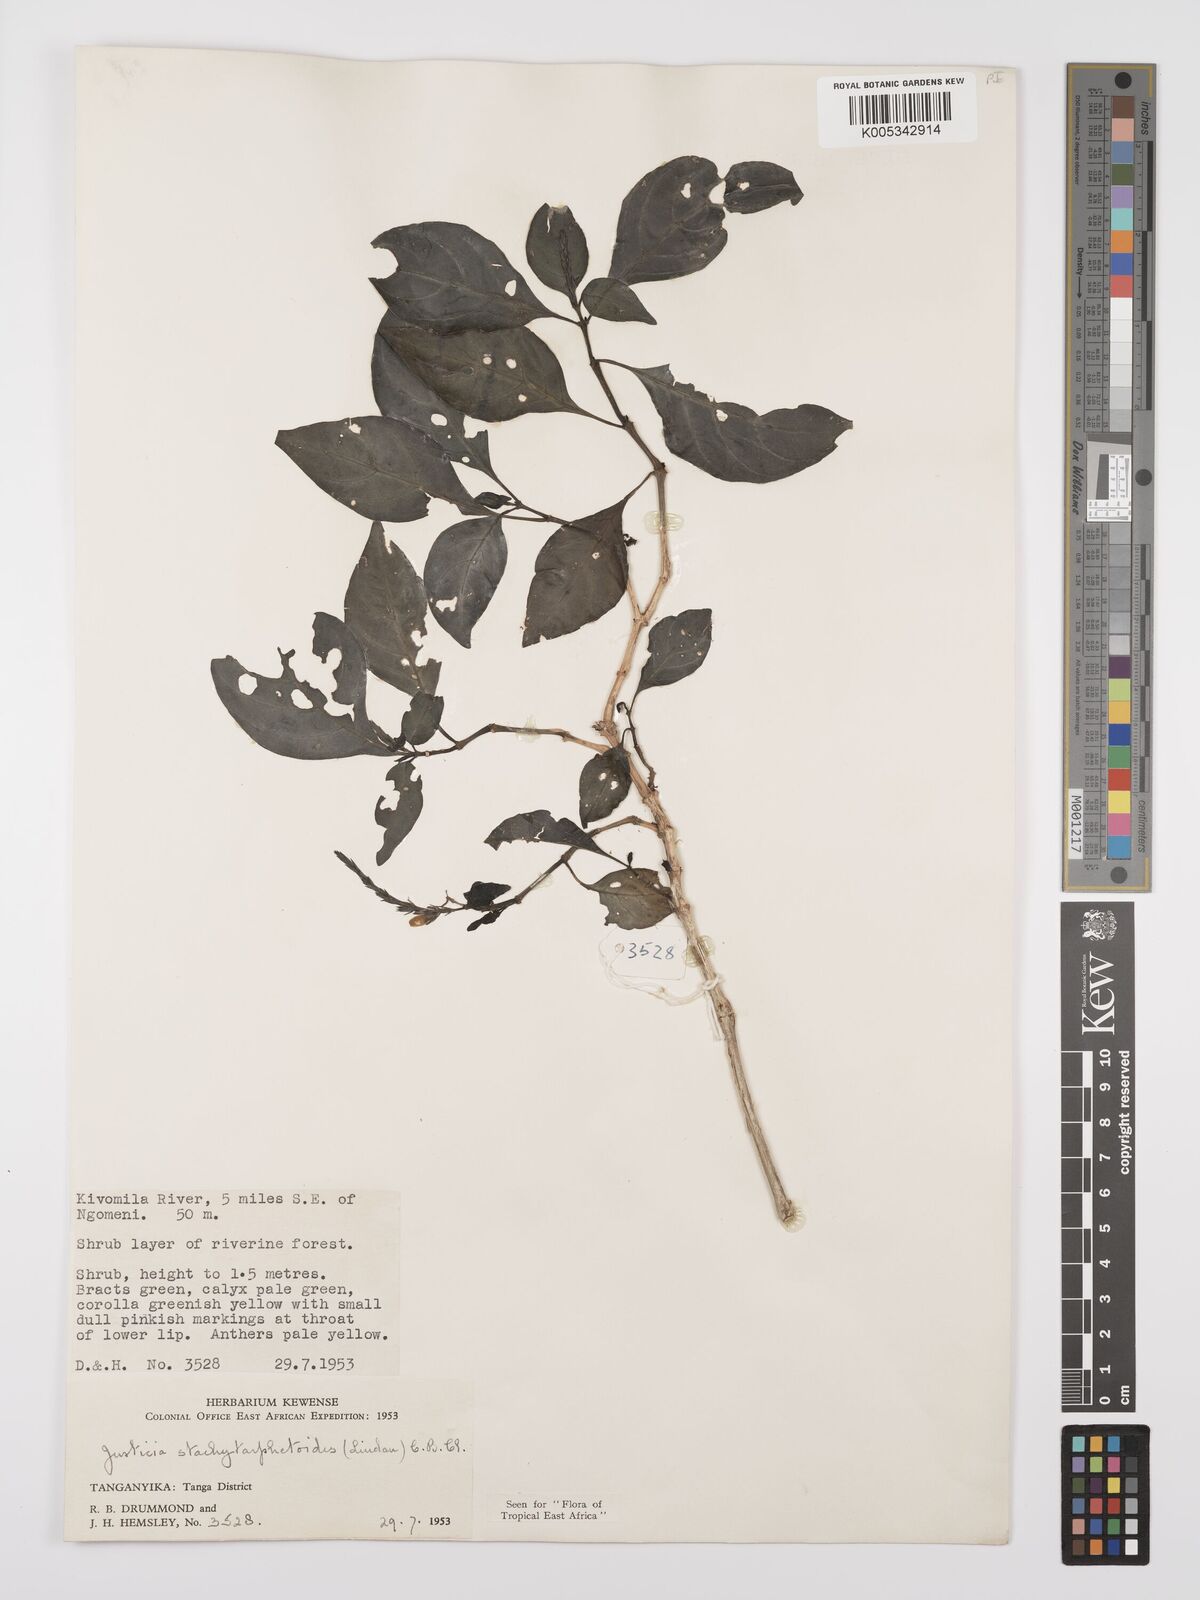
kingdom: Plantae
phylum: Tracheophyta
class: Magnoliopsida
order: Lamiales
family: Acanthaceae
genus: Justicia
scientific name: Justicia stachytarphetoides
